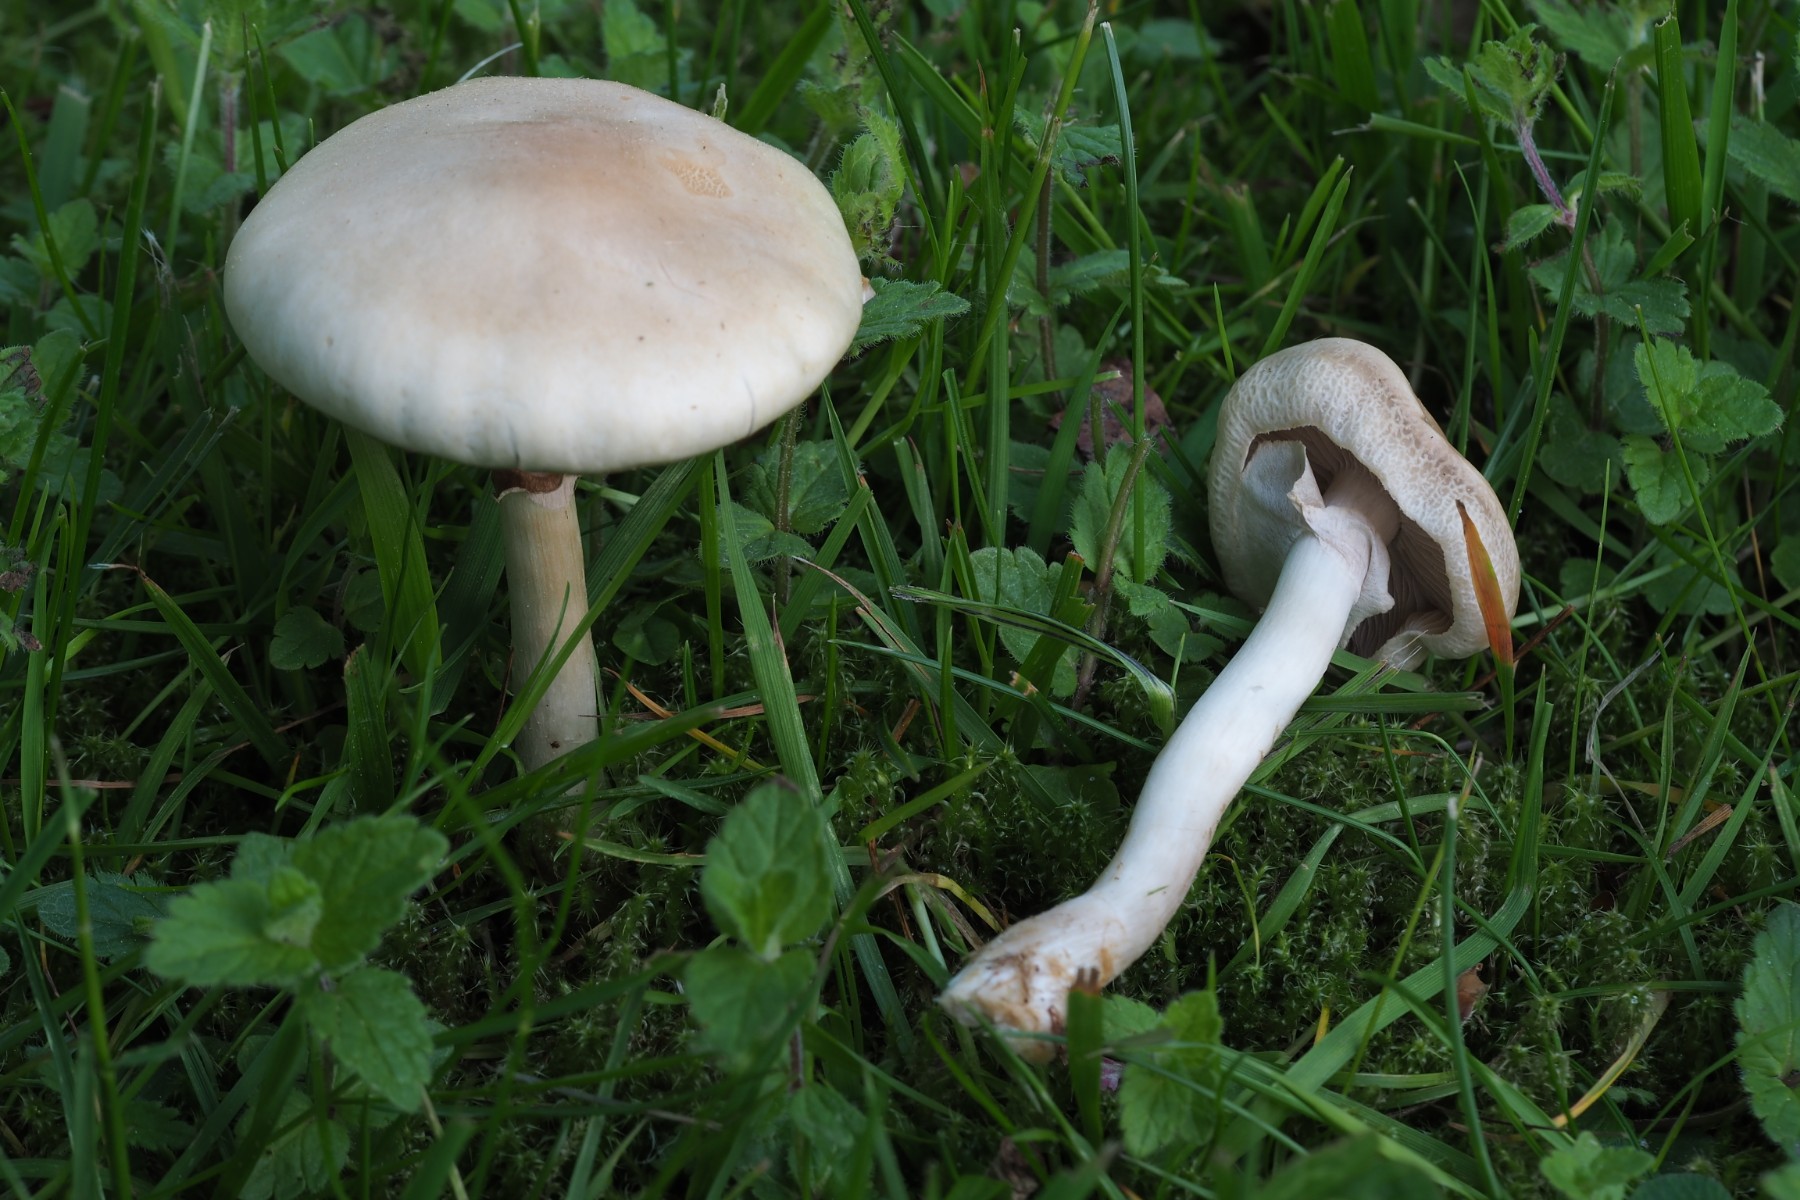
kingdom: Fungi
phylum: Basidiomycota
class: Agaricomycetes
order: Agaricales
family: Strophariaceae
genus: Agrocybe
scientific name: Agrocybe praecox
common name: tidlig agerhat
